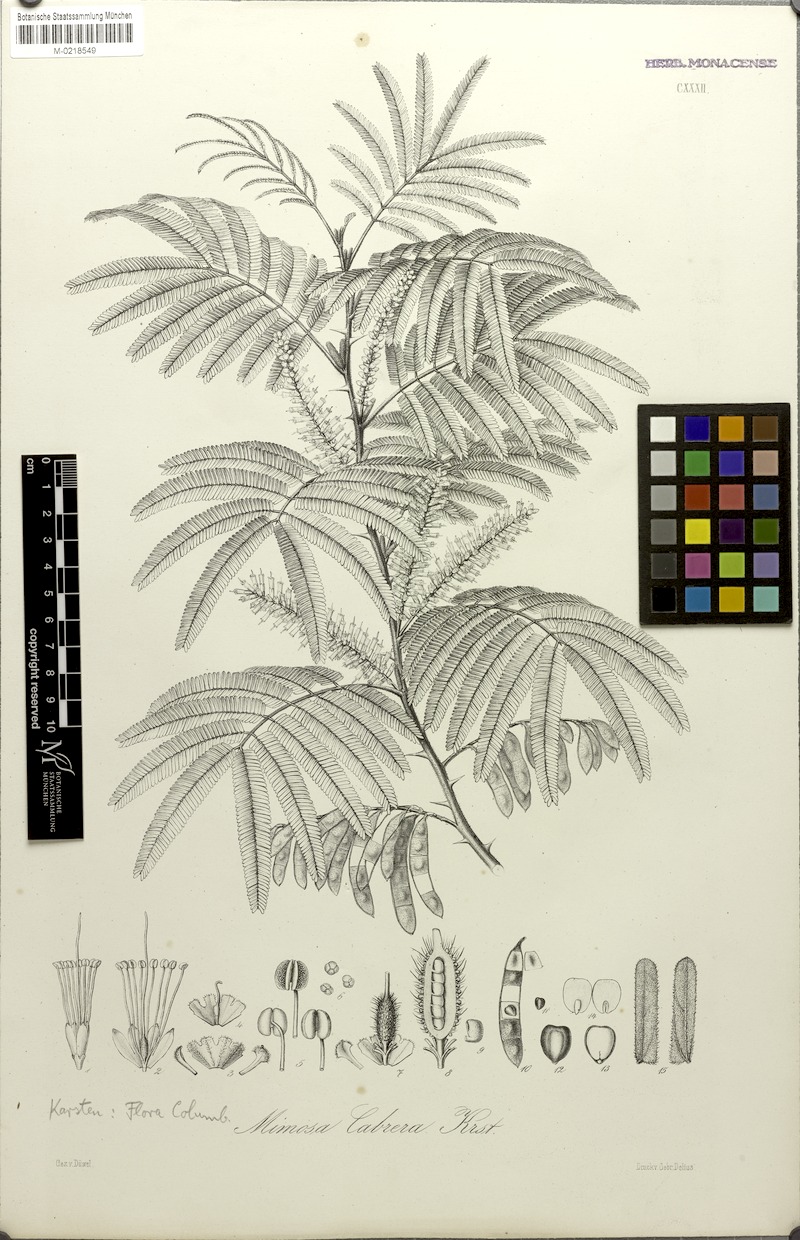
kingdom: Plantae
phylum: Tracheophyta
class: Magnoliopsida
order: Fabales
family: Fabaceae
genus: Mimosa
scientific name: Mimosa tenuiflora
